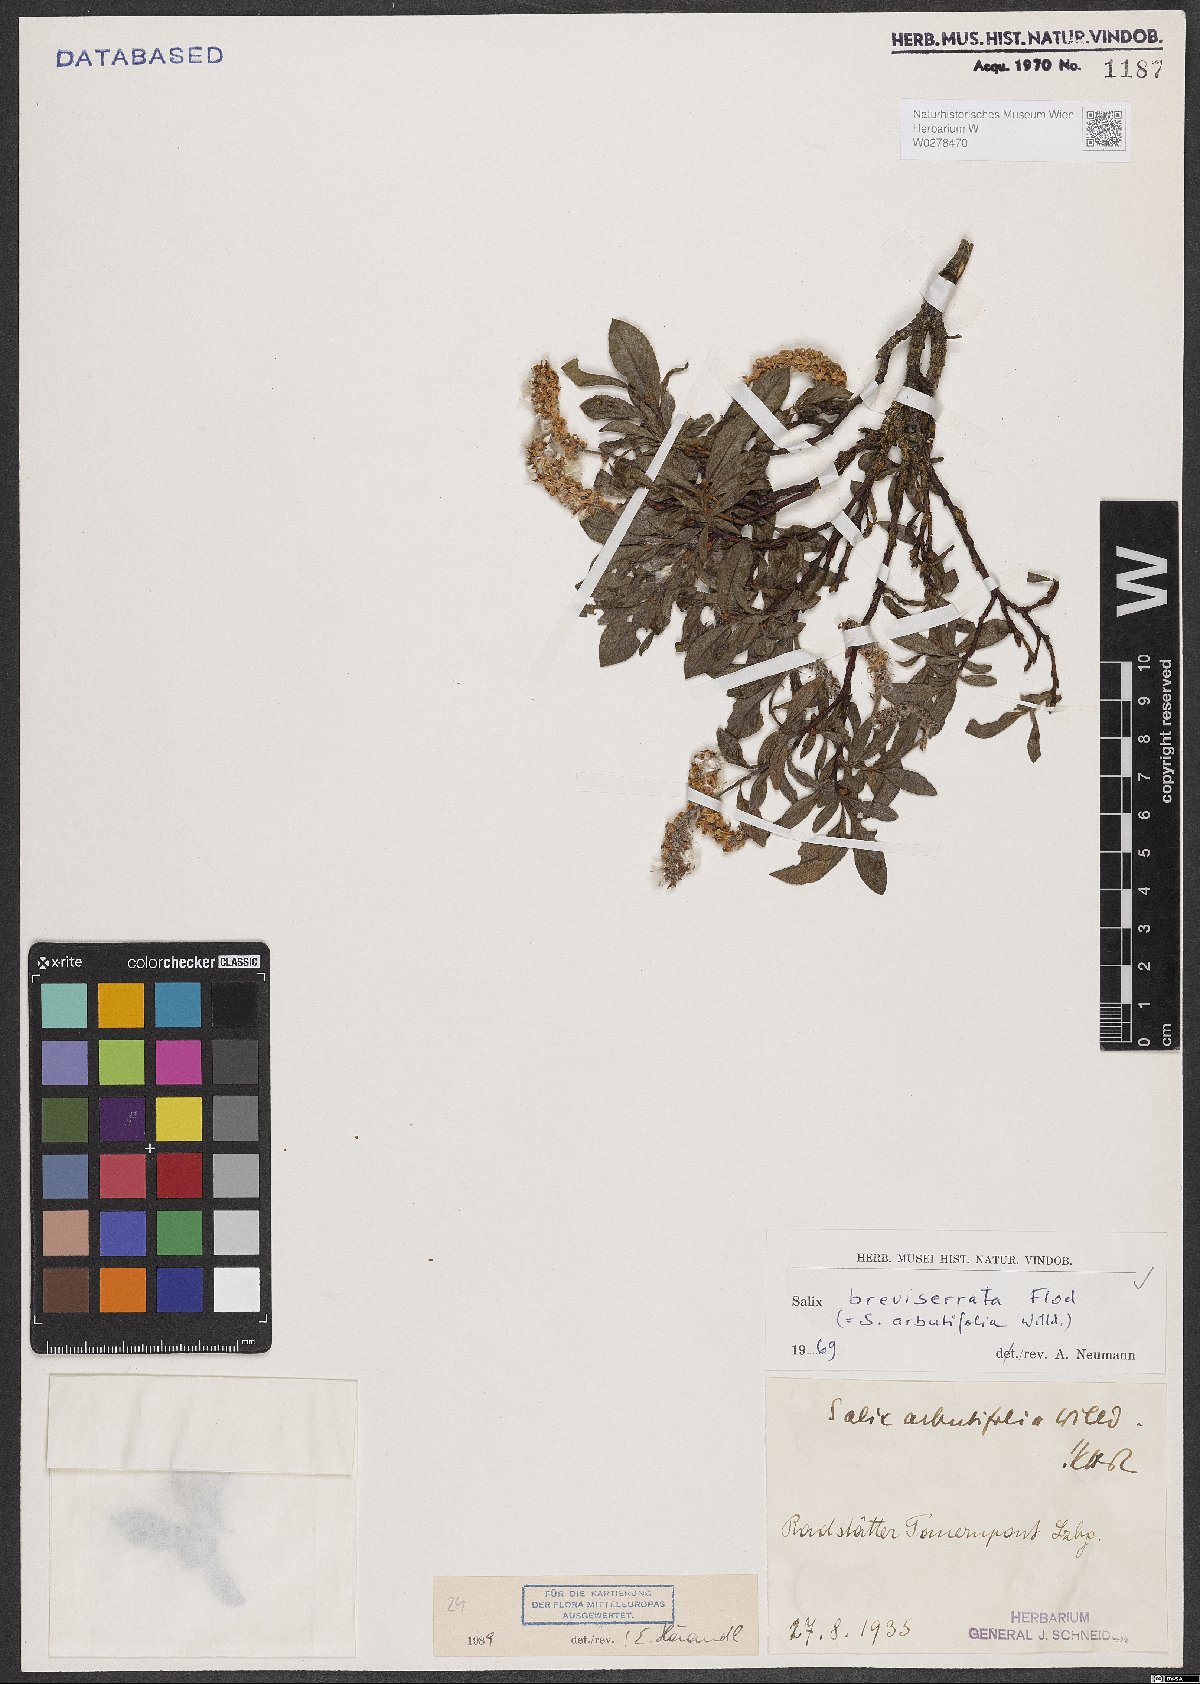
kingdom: Plantae
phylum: Tracheophyta
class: Magnoliopsida
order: Malpighiales
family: Salicaceae
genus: Salix
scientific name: Salix breviserrata
